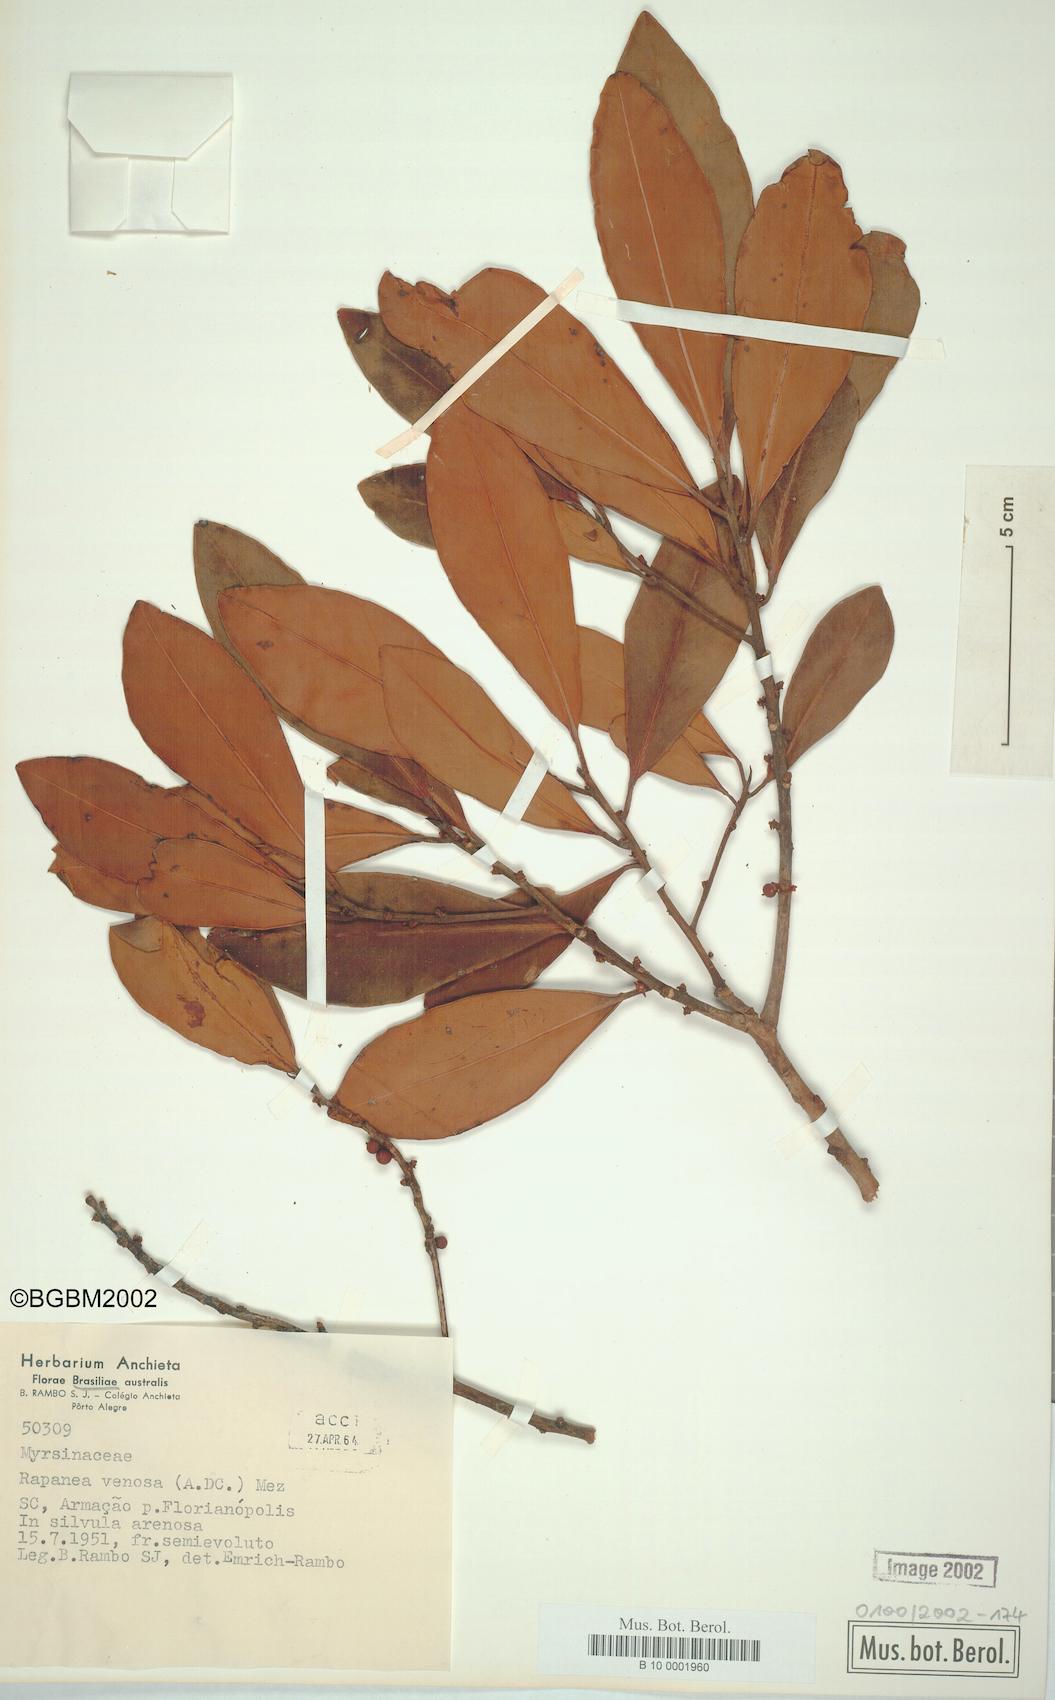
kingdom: Plantae
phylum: Tracheophyta
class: Magnoliopsida
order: Ericales
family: Primulaceae
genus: Myrsine
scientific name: Myrsine
